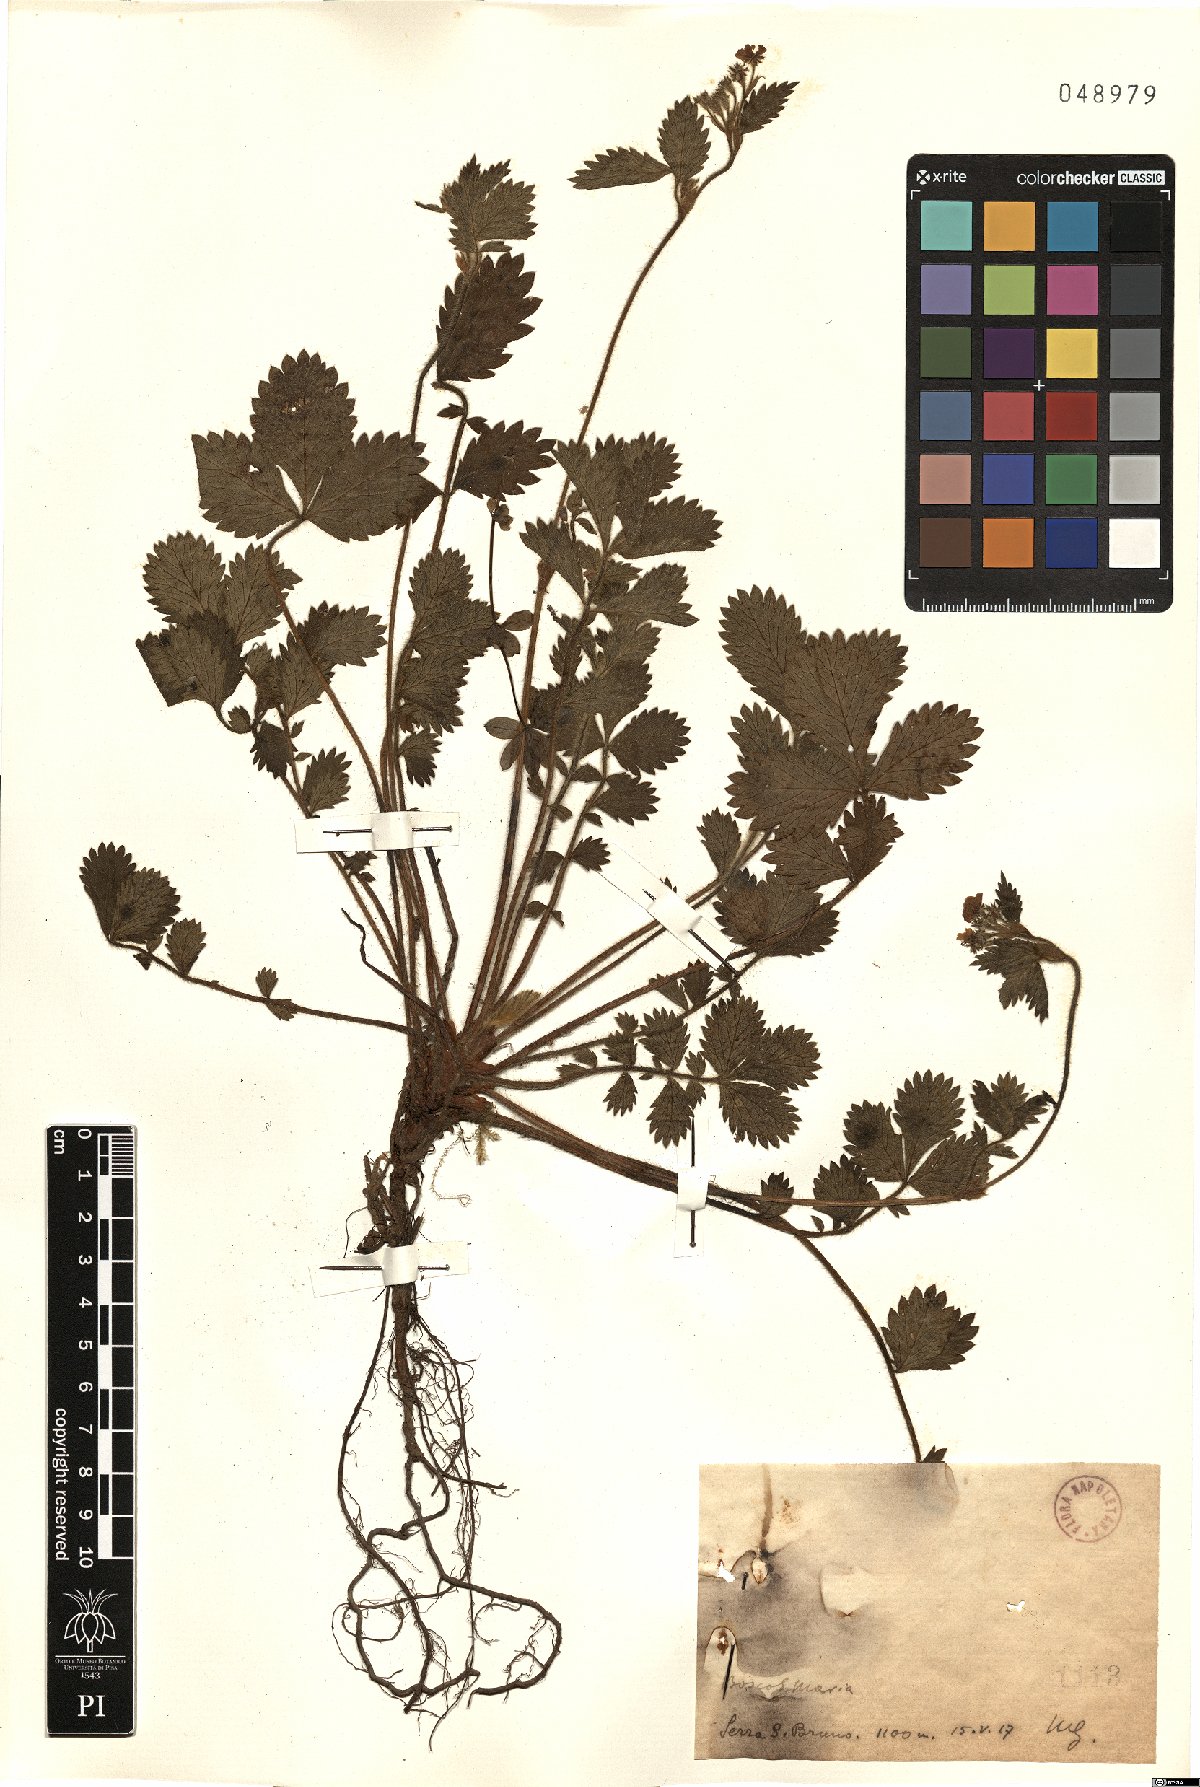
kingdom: Plantae
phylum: Tracheophyta
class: Magnoliopsida
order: Rosales
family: Rosaceae
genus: Agrimonia
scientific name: Agrimonia
